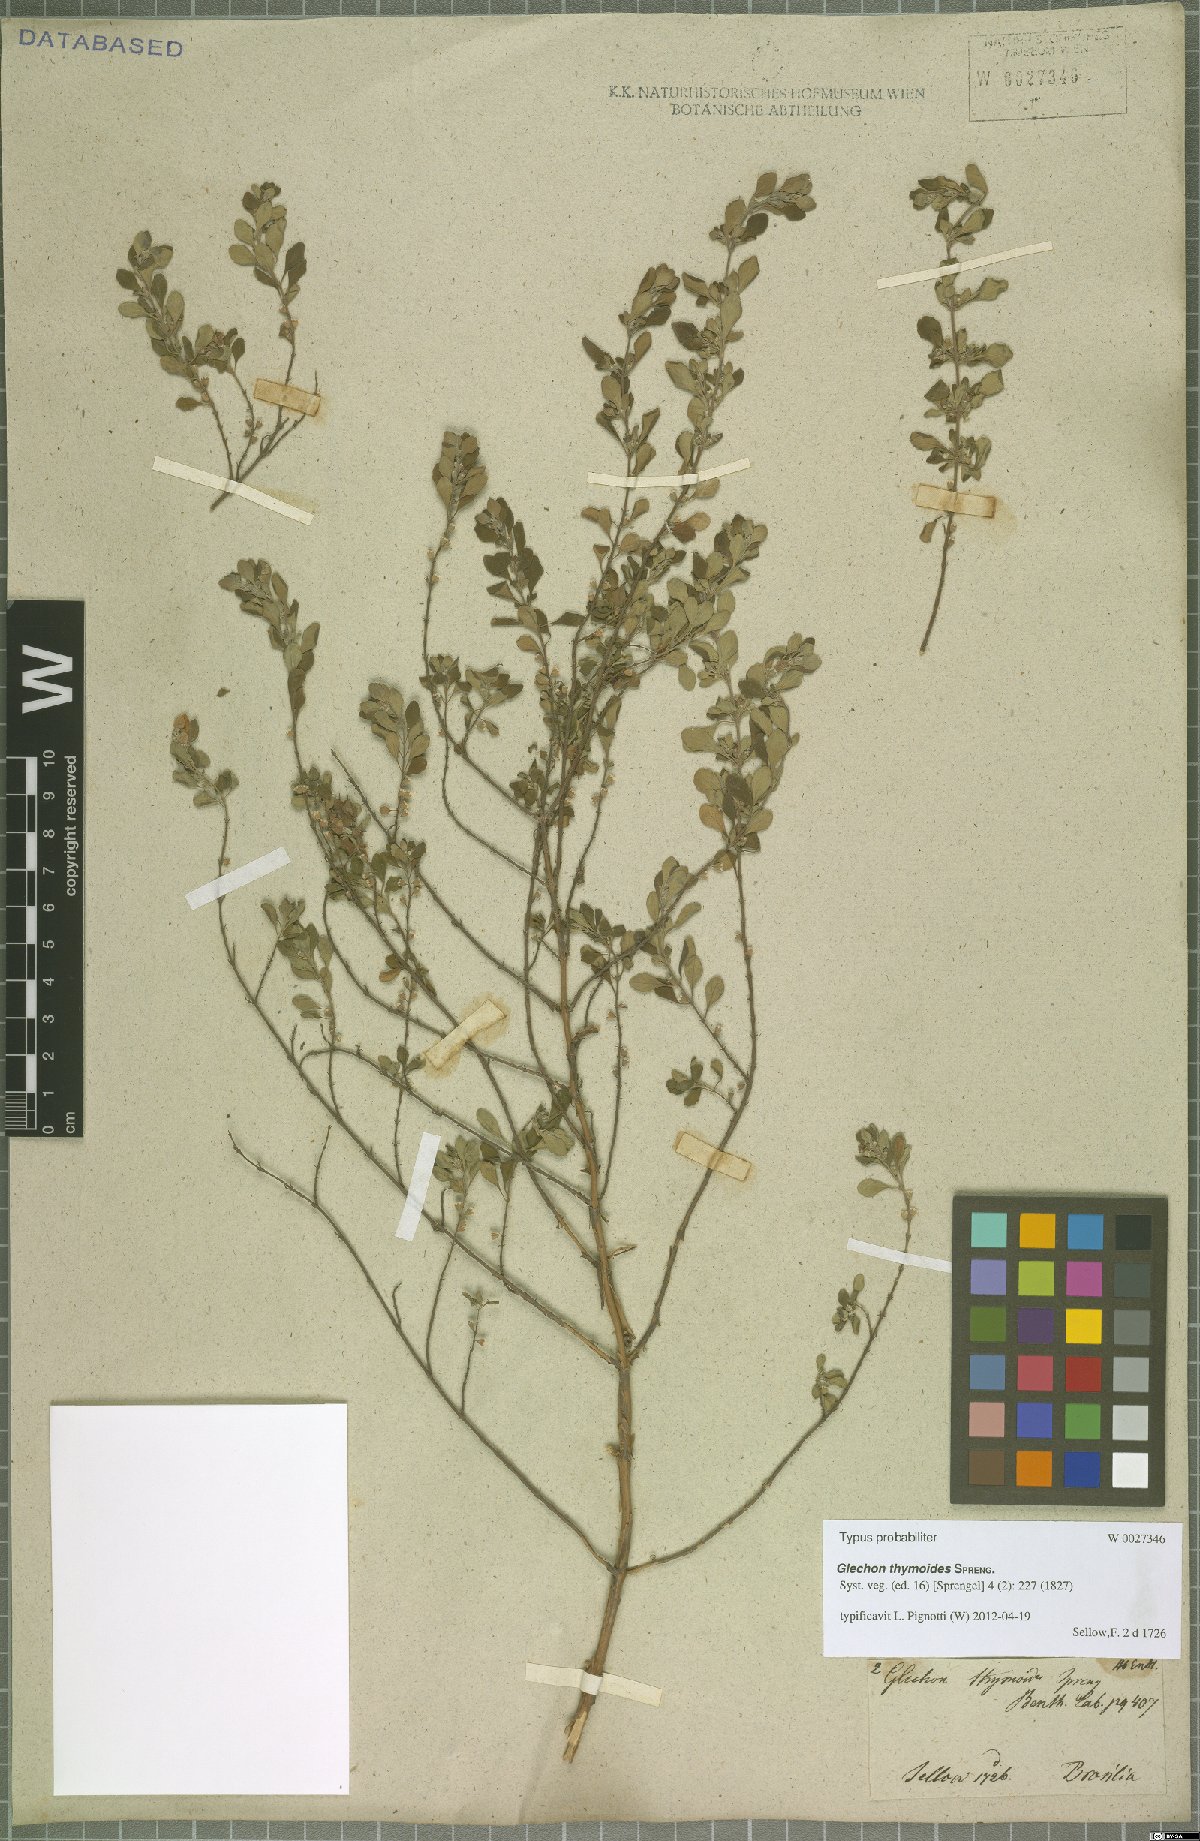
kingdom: Plantae
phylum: Tracheophyta
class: Magnoliopsida
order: Lamiales
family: Lamiaceae
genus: Glechon
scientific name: Glechon thymoides
